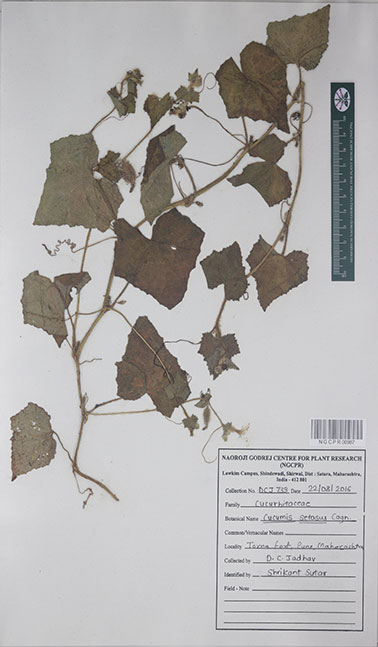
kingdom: Plantae
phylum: Tracheophyta
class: Magnoliopsida
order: Cucurbitales
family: Cucurbitaceae
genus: Cucumis
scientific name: Cucumis setosus
